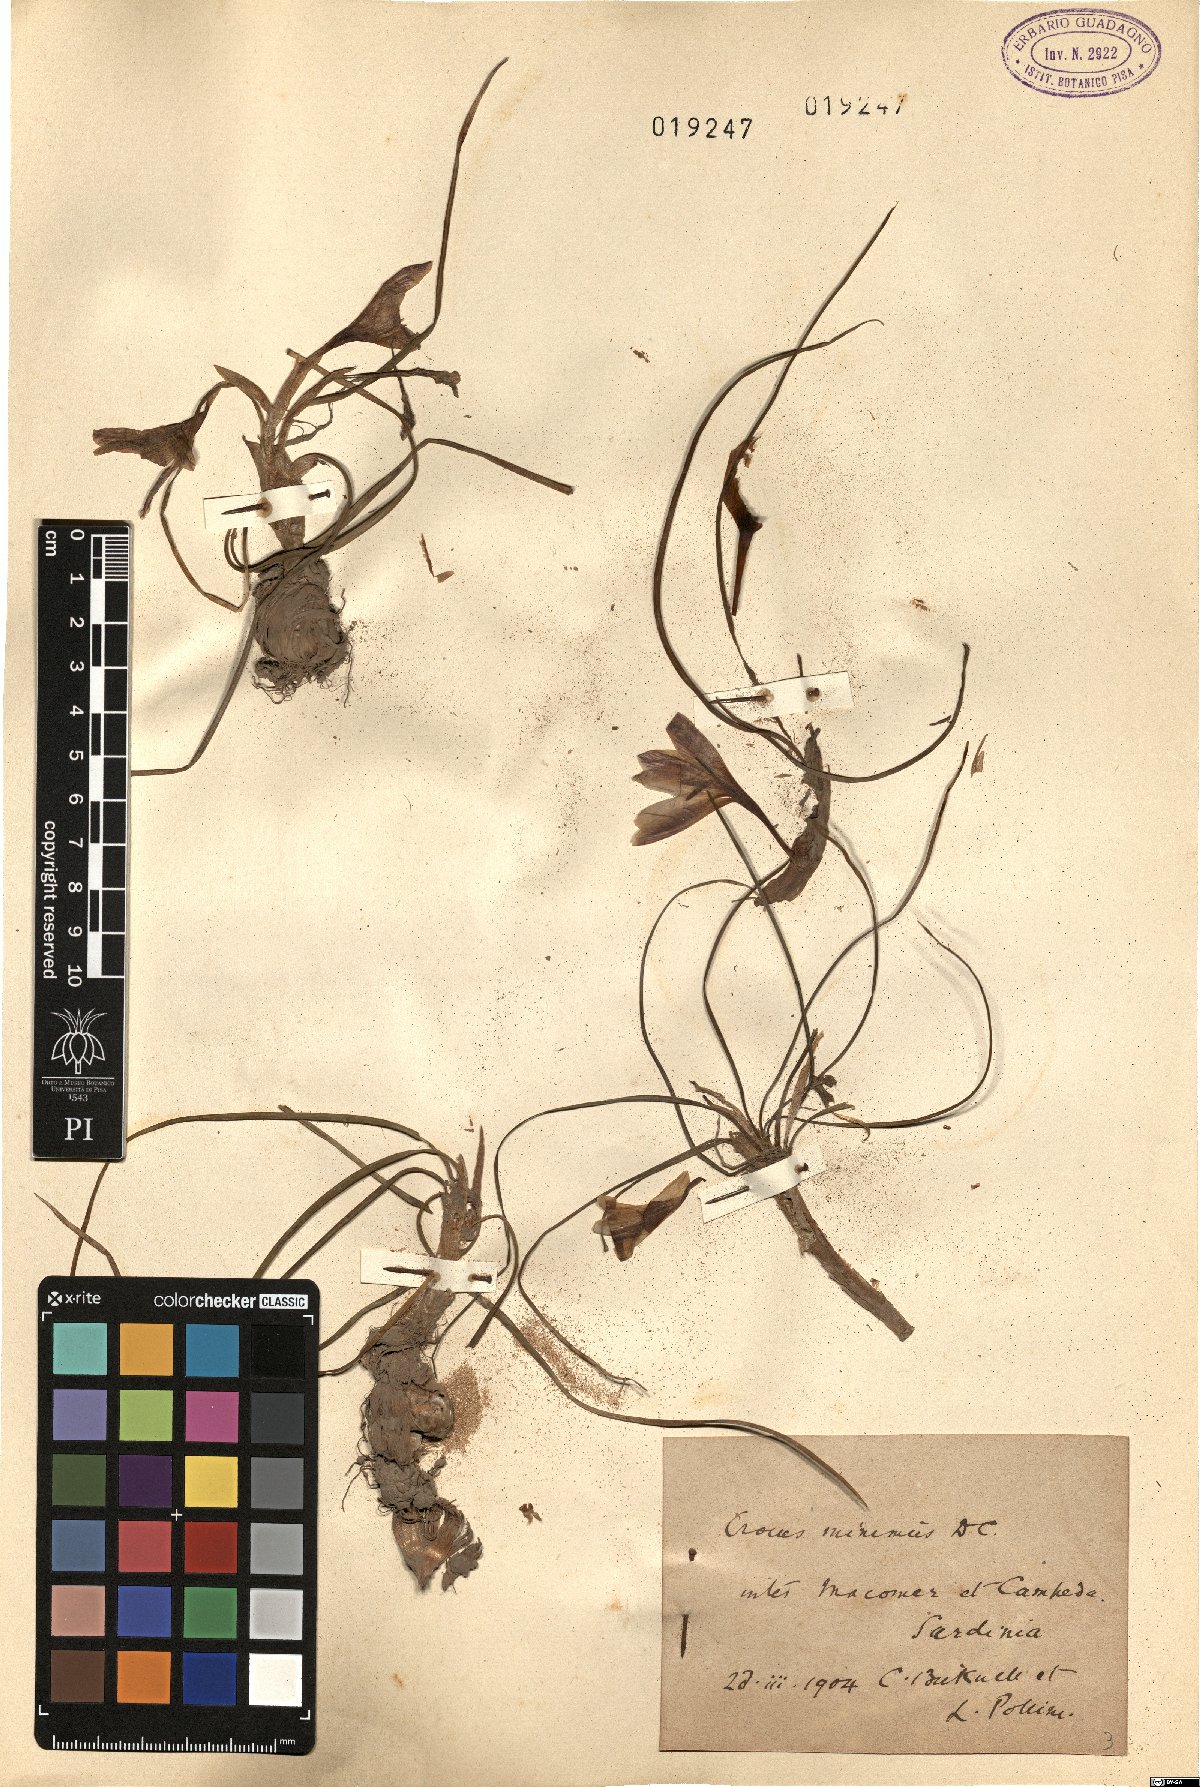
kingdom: Plantae
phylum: Tracheophyta
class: Liliopsida
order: Asparagales
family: Iridaceae
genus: Crocus
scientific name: Crocus minimus
